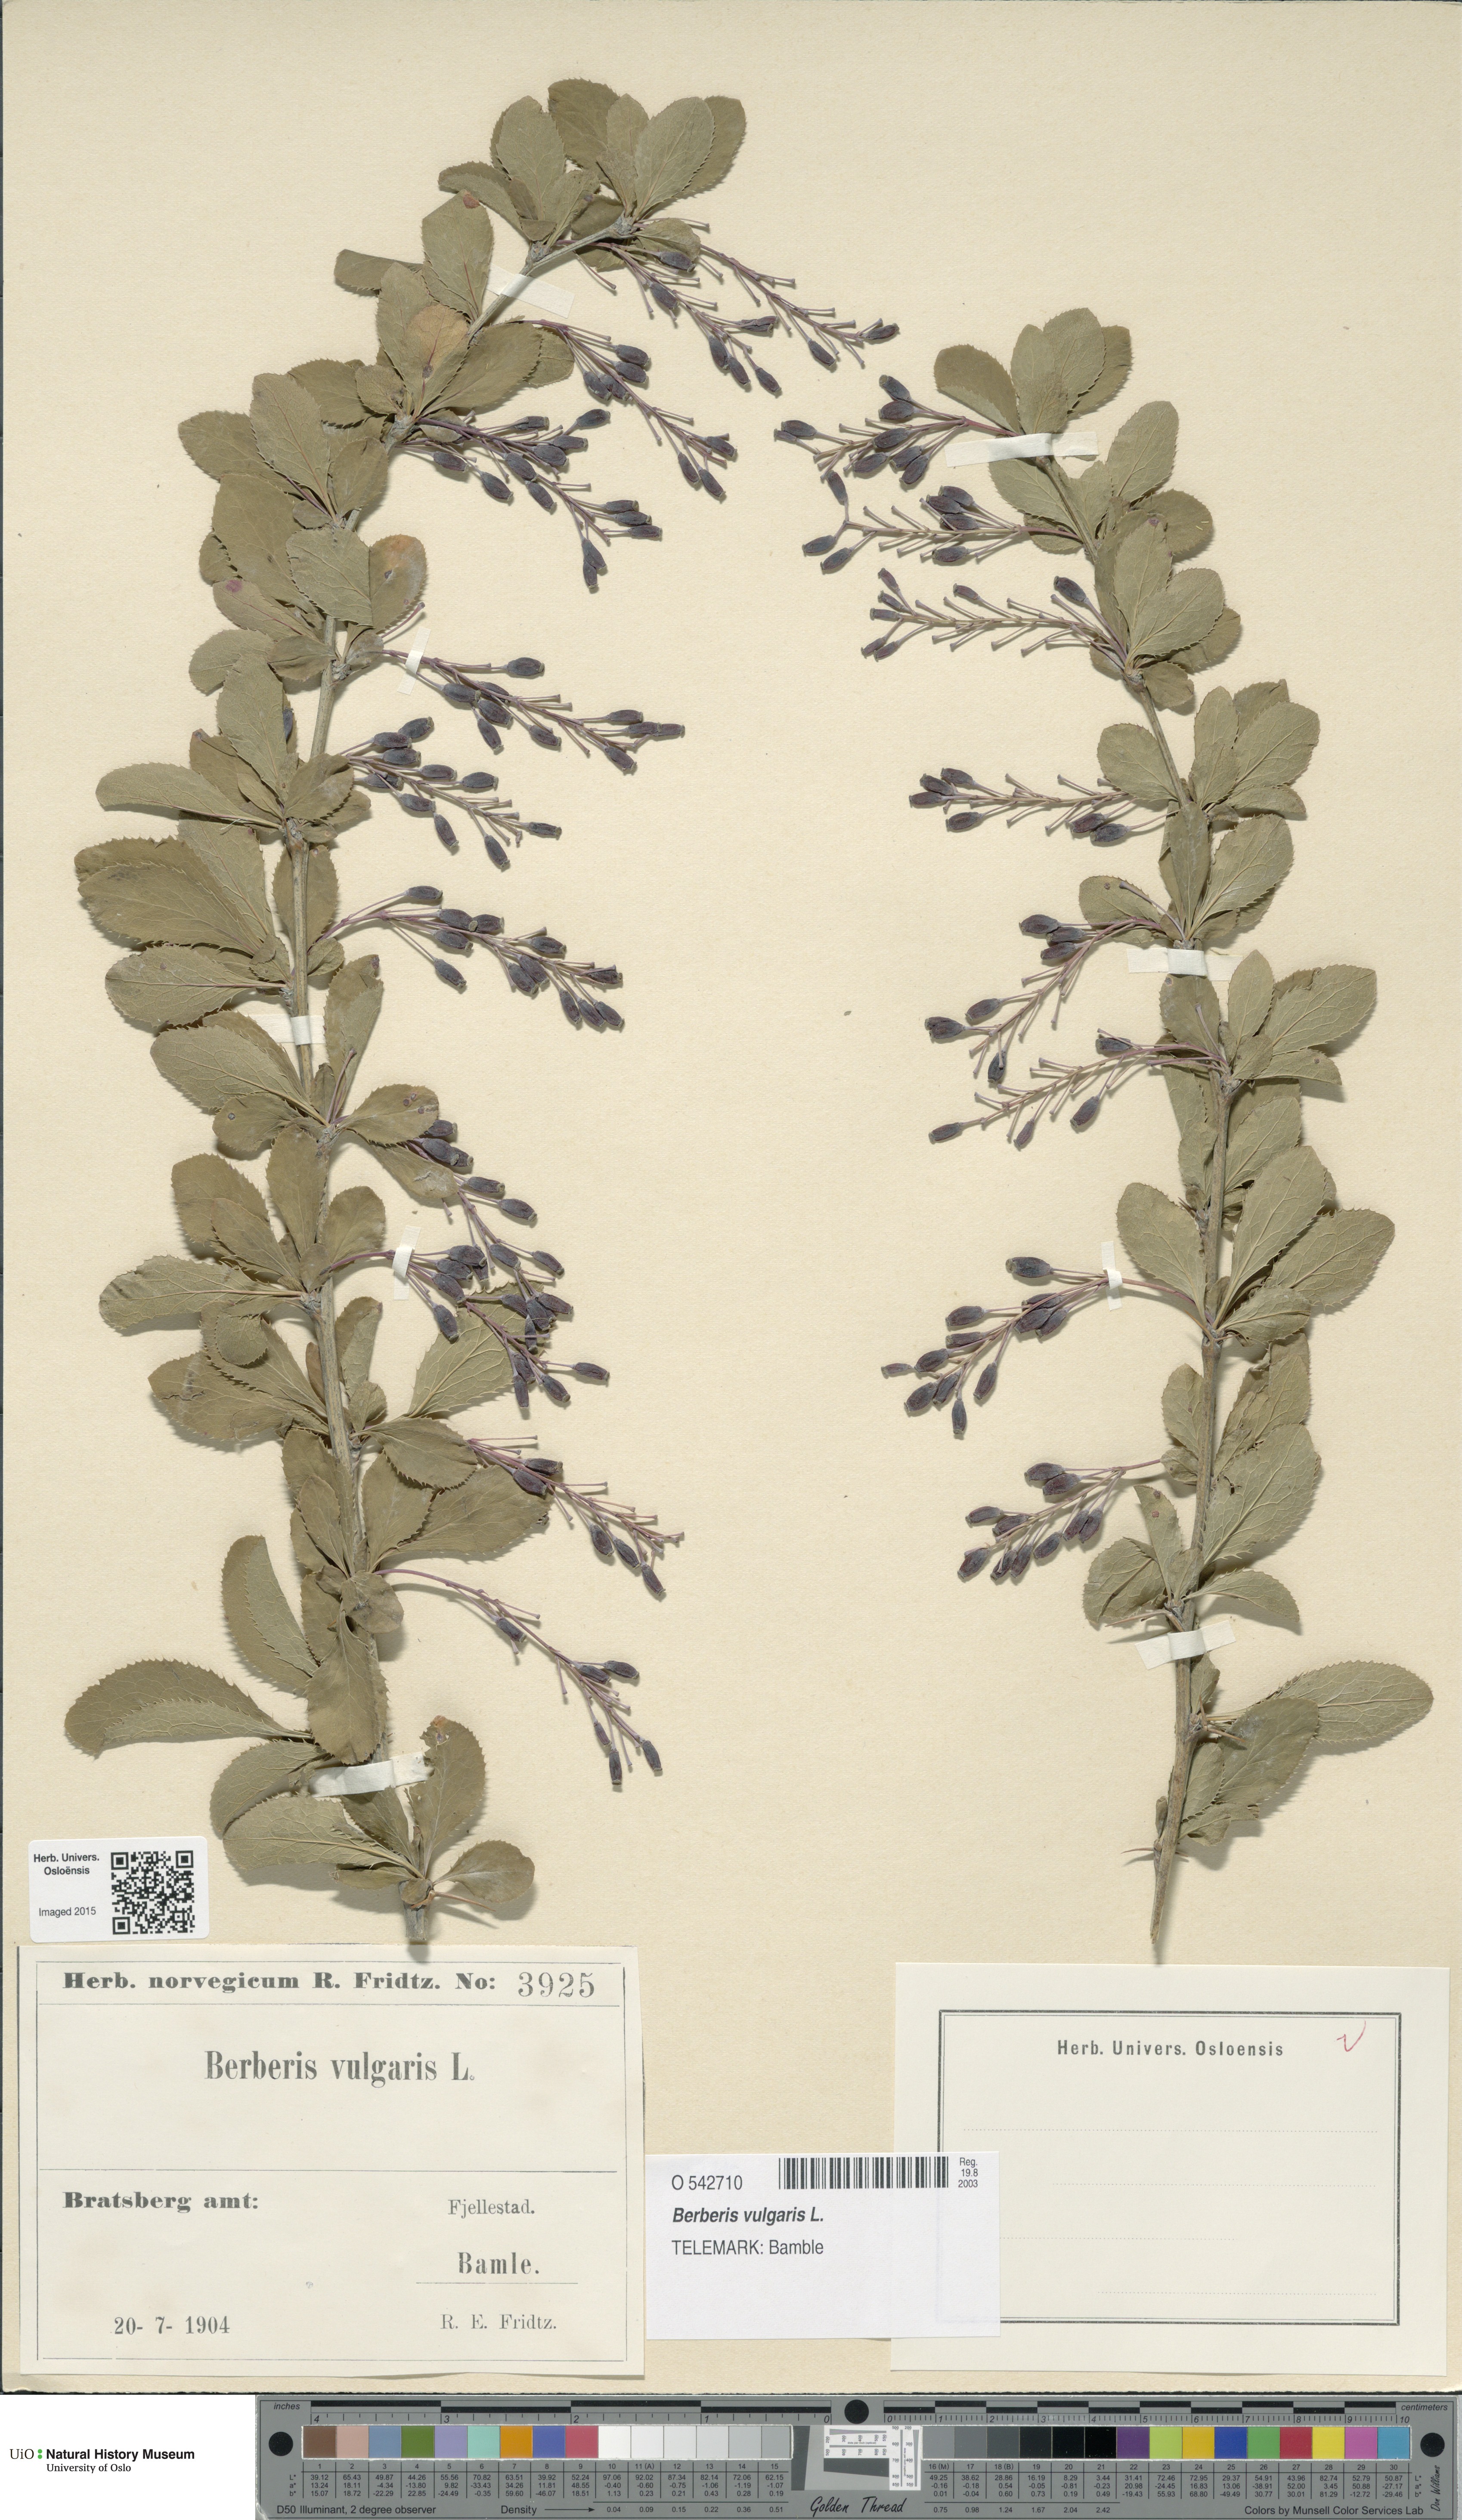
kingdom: Plantae
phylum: Tracheophyta
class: Magnoliopsida
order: Ranunculales
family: Berberidaceae
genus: Berberis
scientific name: Berberis vulgaris
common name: Barberry
